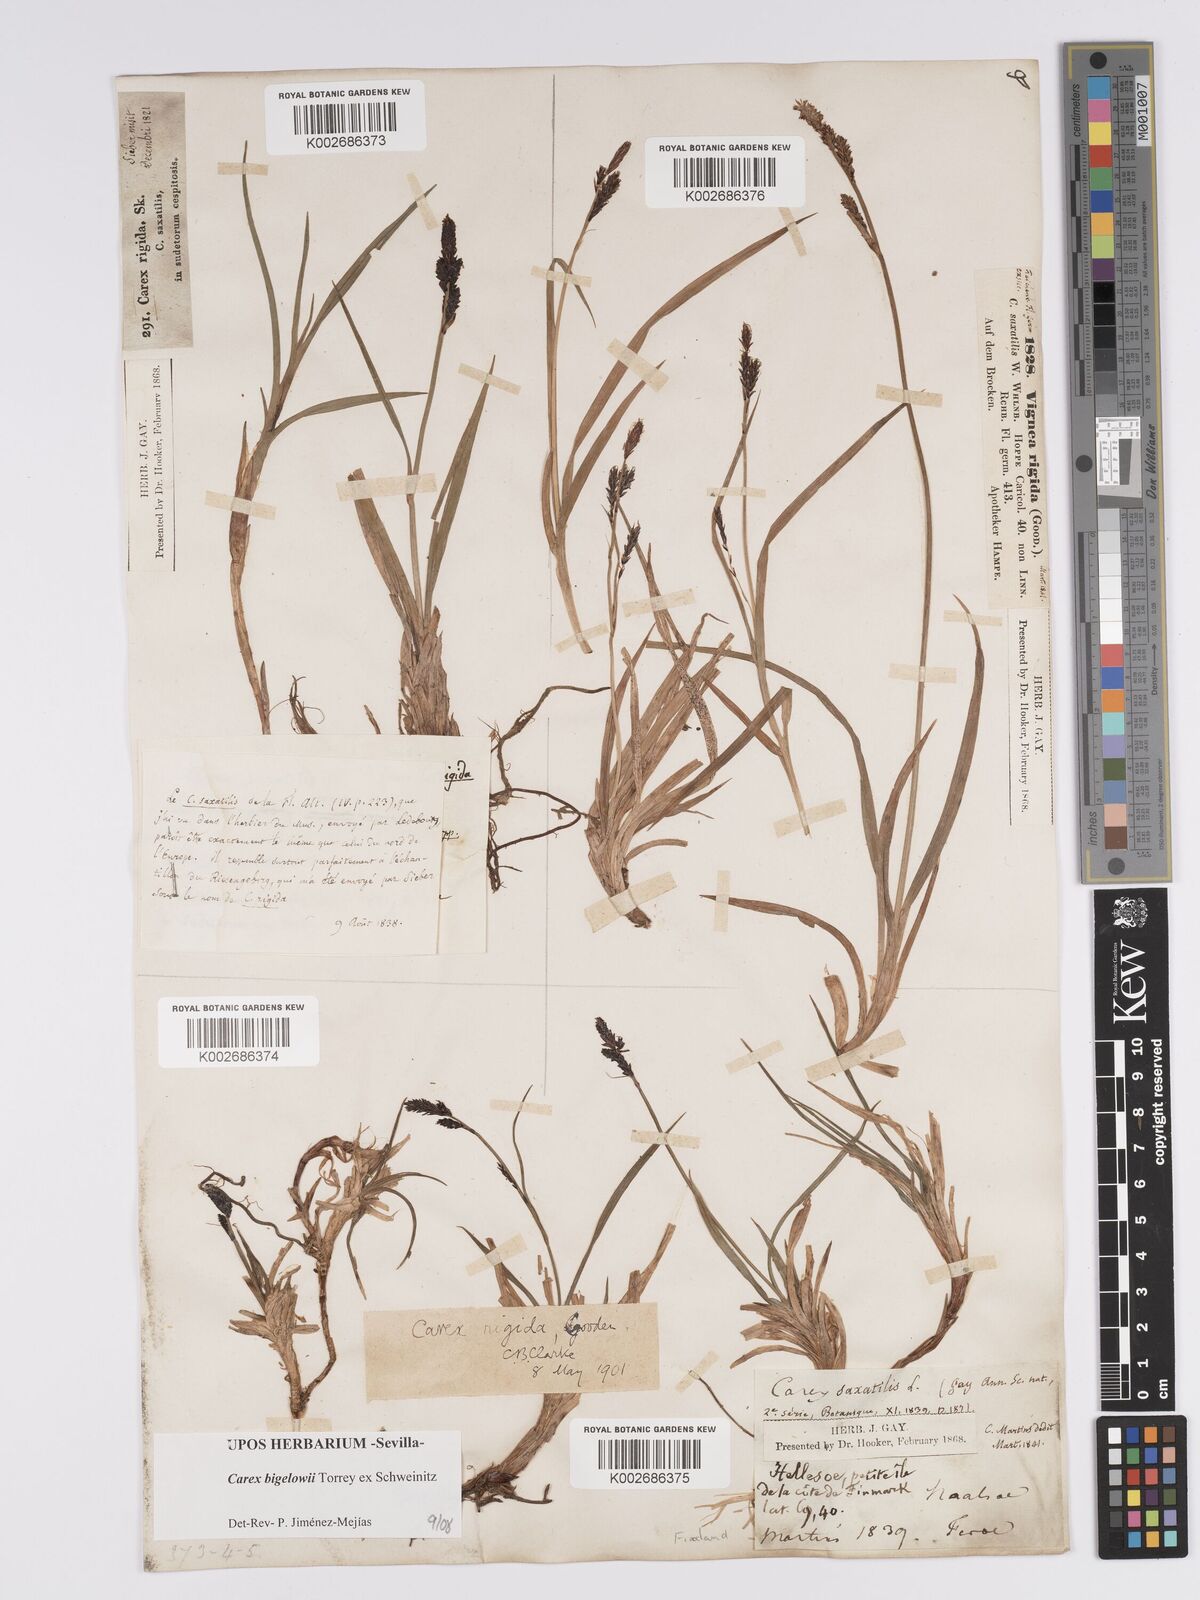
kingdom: Plantae
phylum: Tracheophyta
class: Liliopsida
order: Poales
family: Cyperaceae
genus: Carex
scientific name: Carex bigelowii
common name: Stiff sedge
